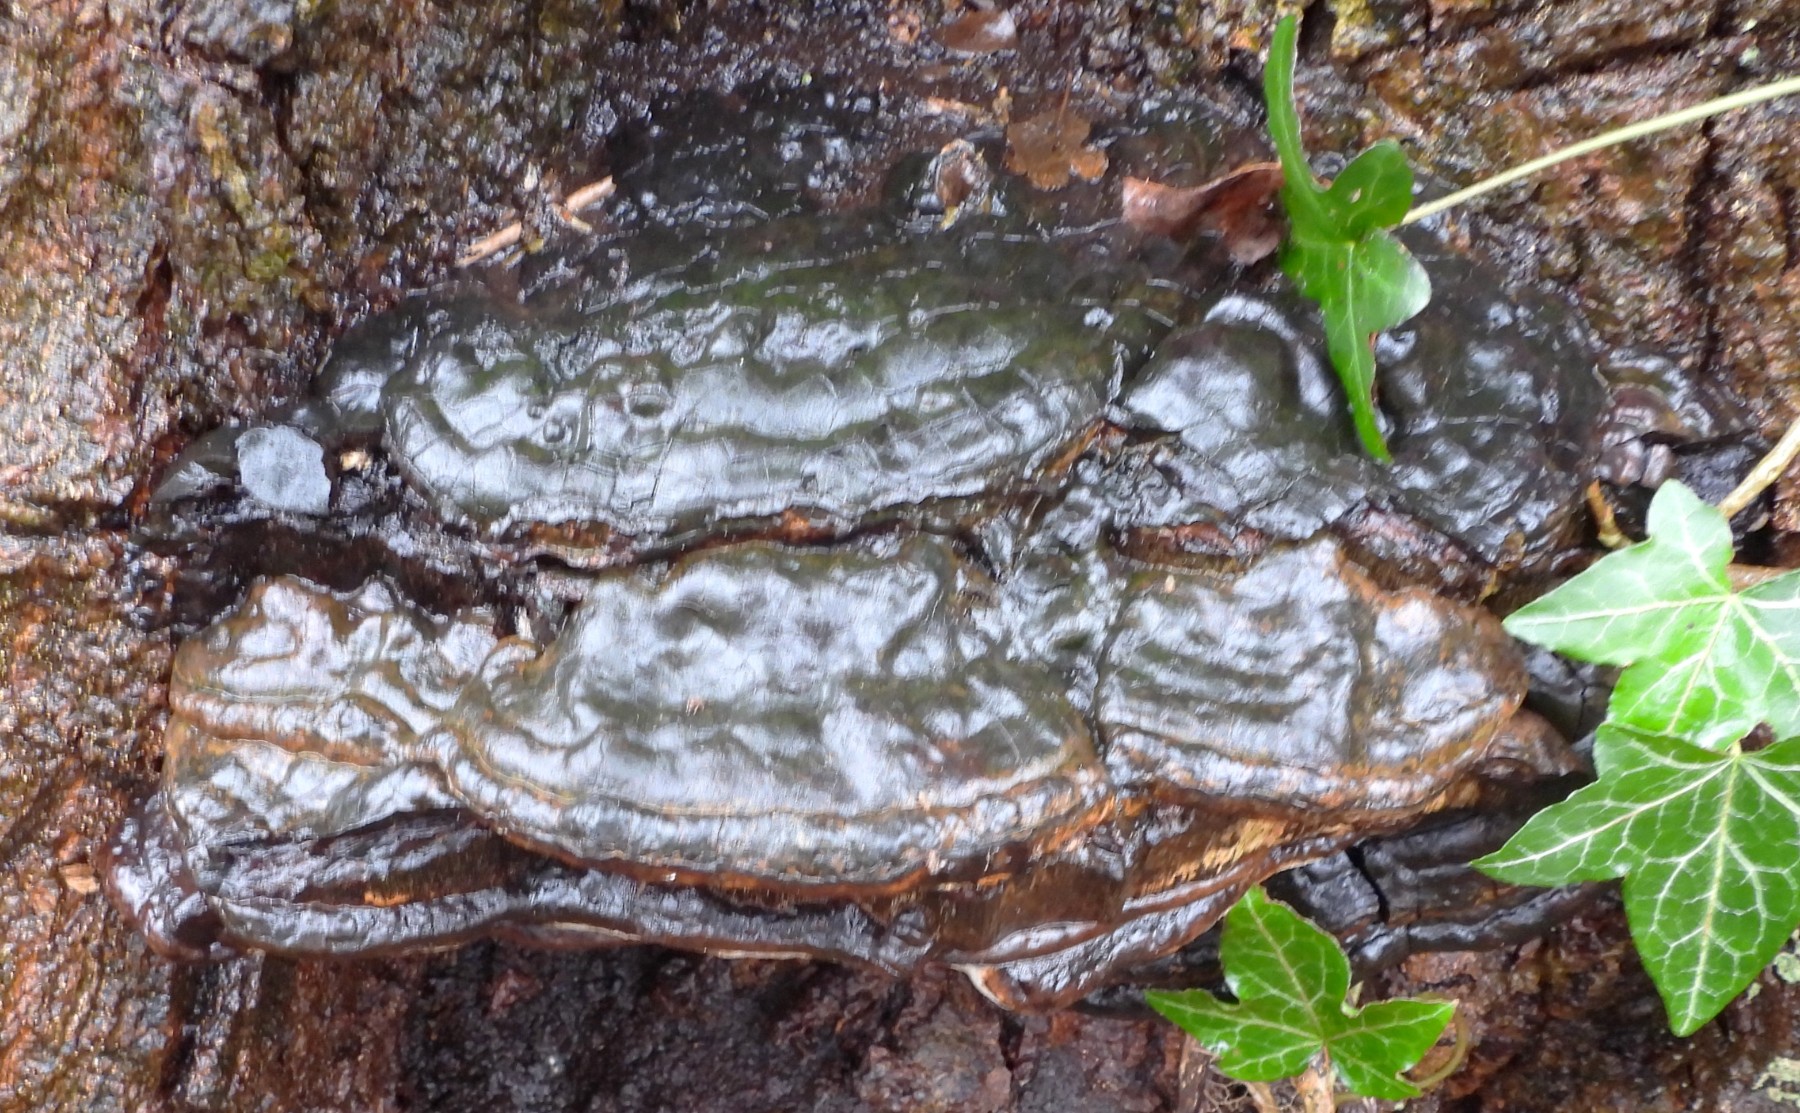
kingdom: Fungi
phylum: Basidiomycota
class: Agaricomycetes
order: Polyporales
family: Polyporaceae
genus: Ganoderma
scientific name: Ganoderma applanatum
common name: flad lakporesvamp
